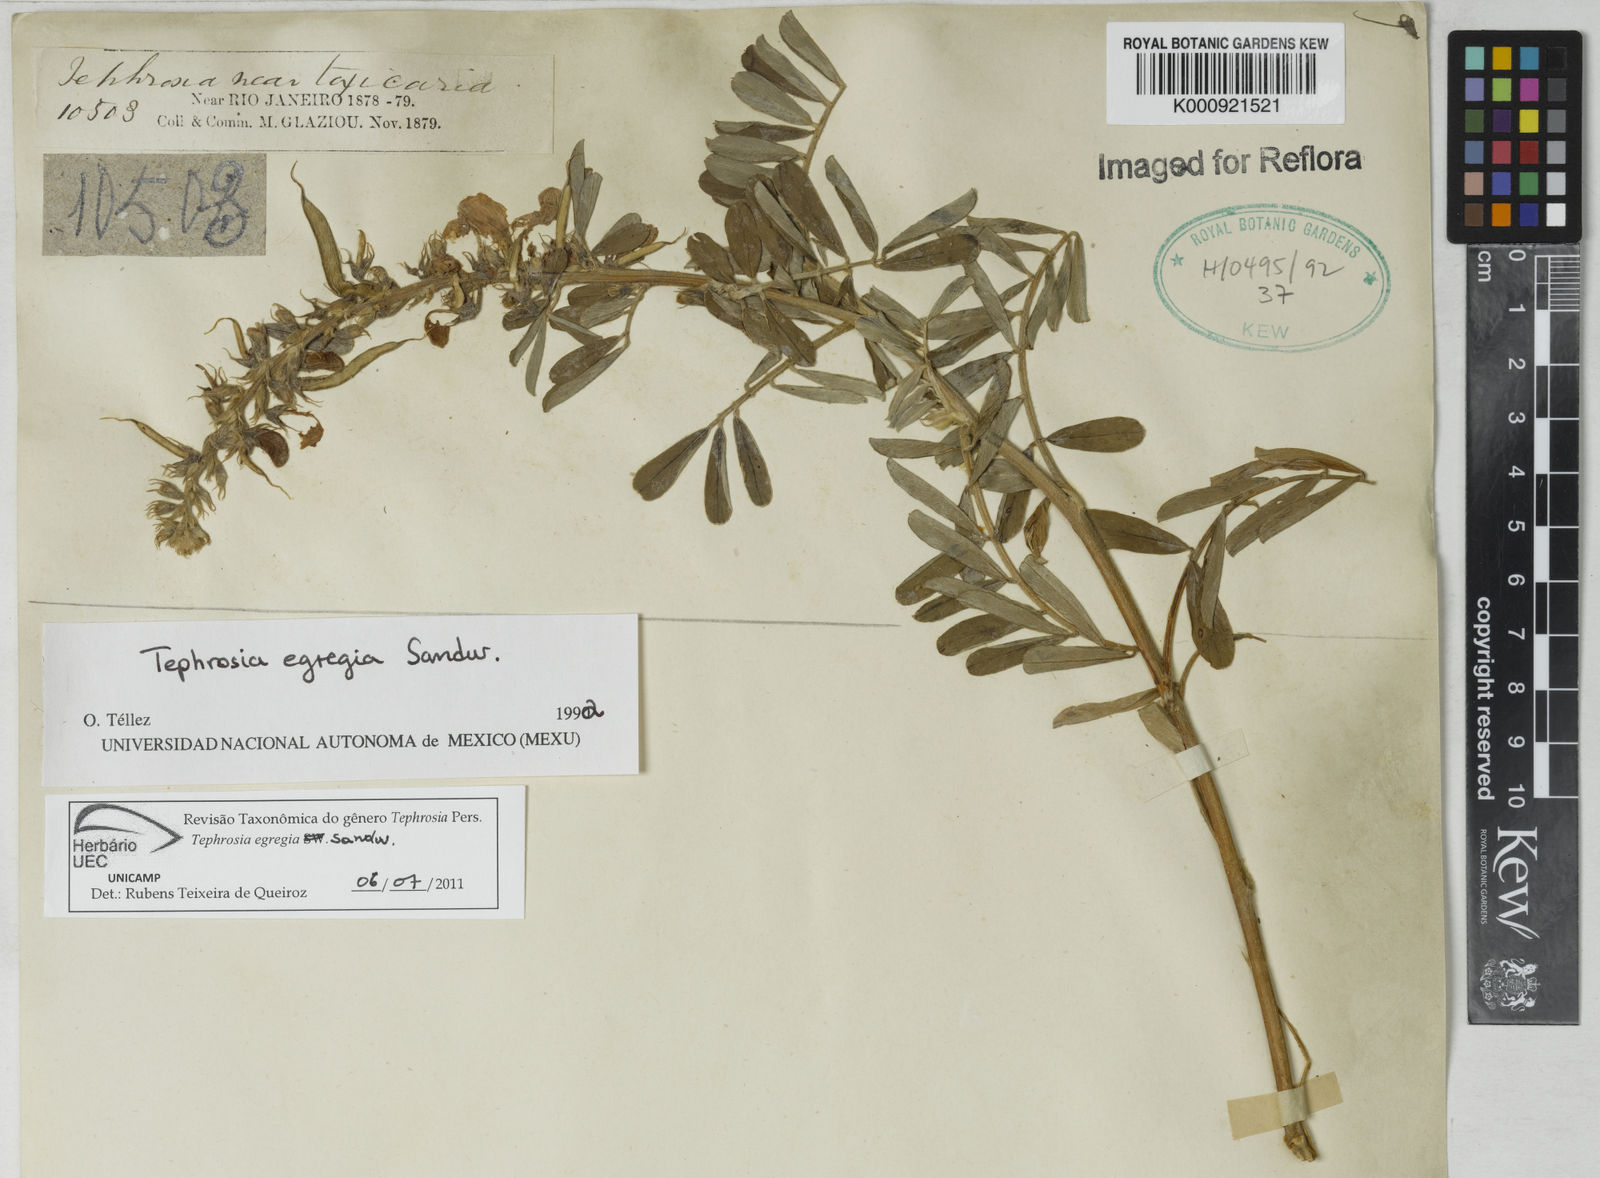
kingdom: Plantae
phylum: Tracheophyta
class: Magnoliopsida
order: Fabales
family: Fabaceae
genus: Tephrosia
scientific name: Tephrosia egregia
